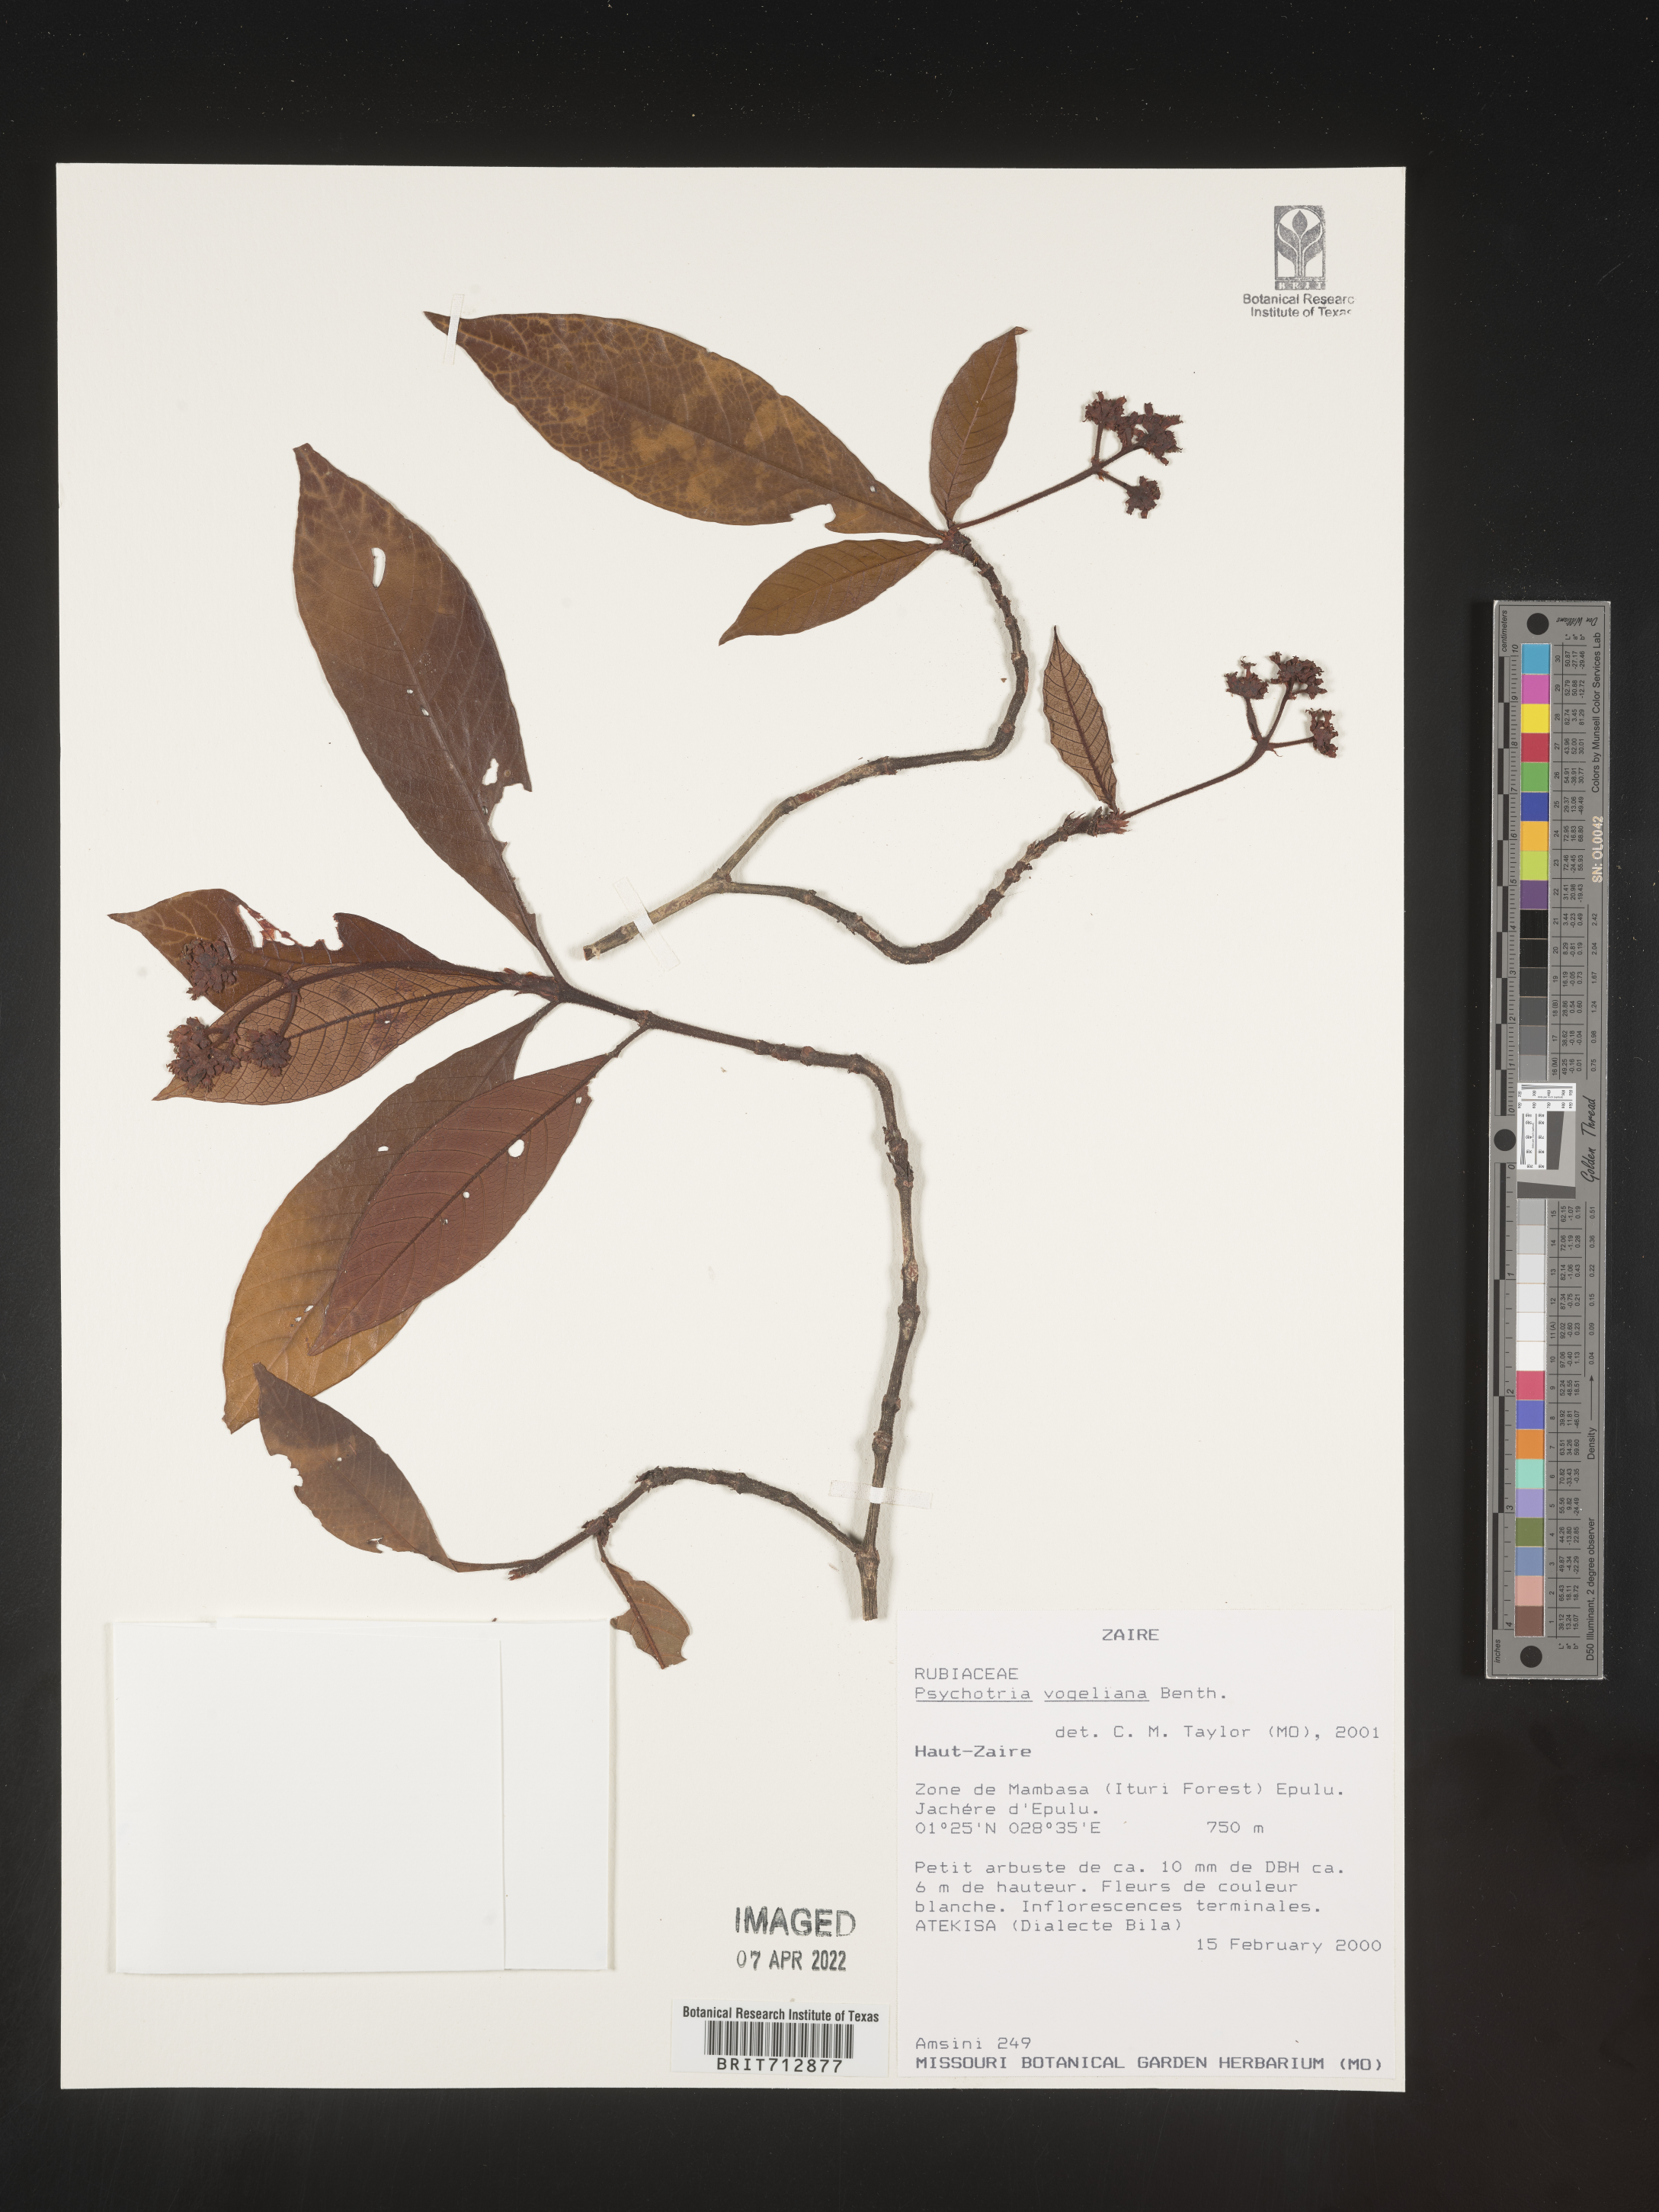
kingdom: Plantae
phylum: Tracheophyta
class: Magnoliopsida
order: Gentianales
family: Rubiaceae
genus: Psychotria
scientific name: Psychotria
